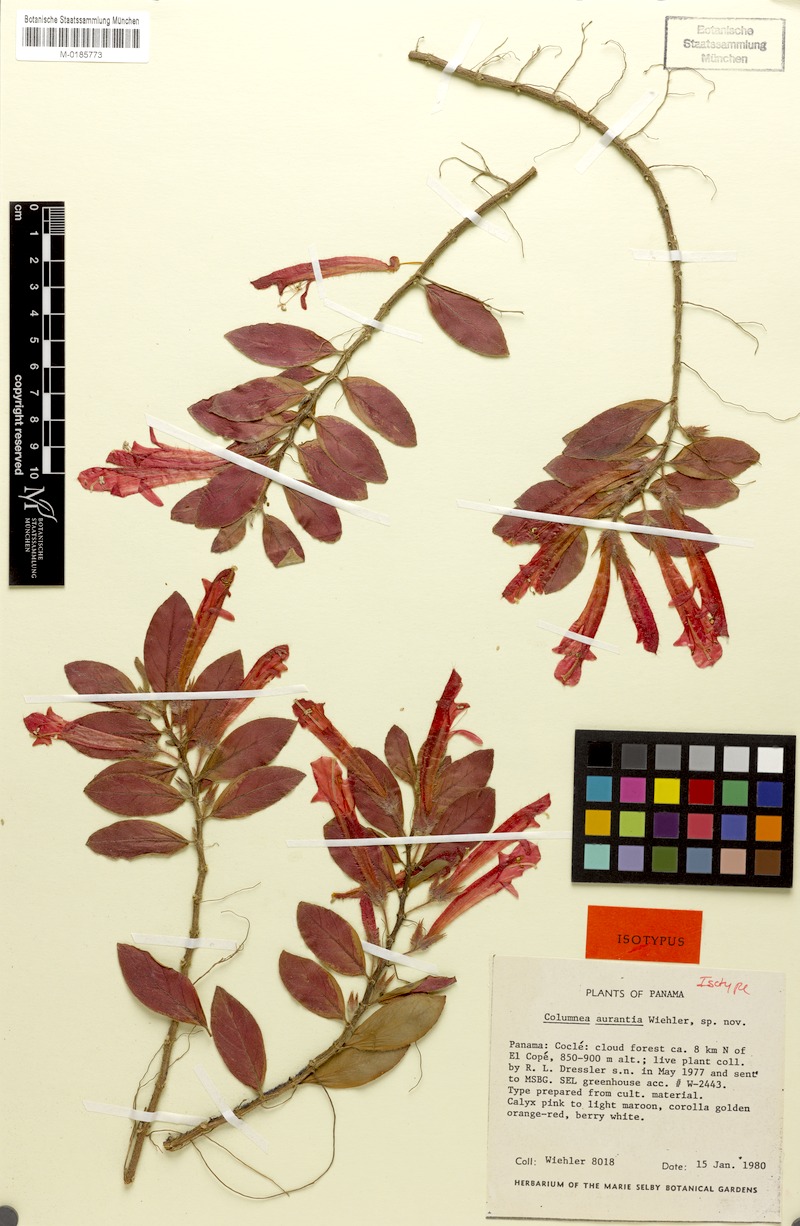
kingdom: Plantae
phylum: Tracheophyta
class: Magnoliopsida
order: Lamiales
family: Gesneriaceae
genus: Columnea
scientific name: Columnea aurantia
